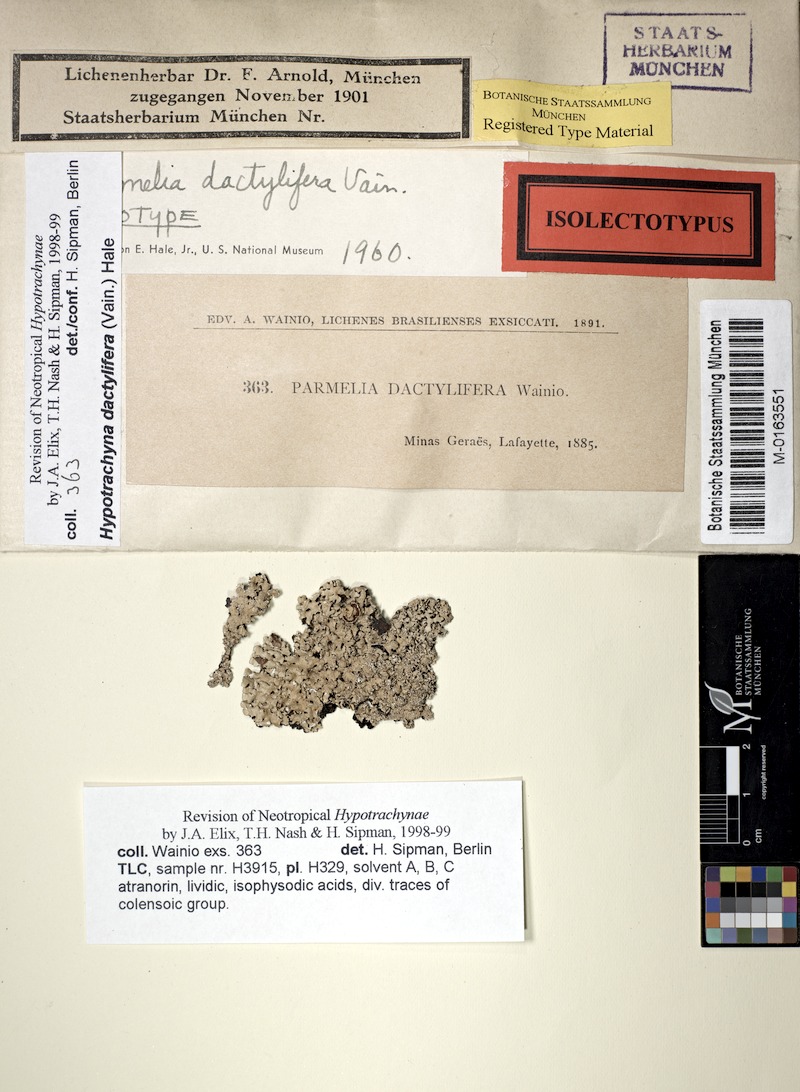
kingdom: Fungi
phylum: Ascomycota
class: Lecanoromycetes
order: Lecanorales
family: Parmeliaceae
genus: Hypotrachyna
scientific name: Hypotrachyna dactylifera
